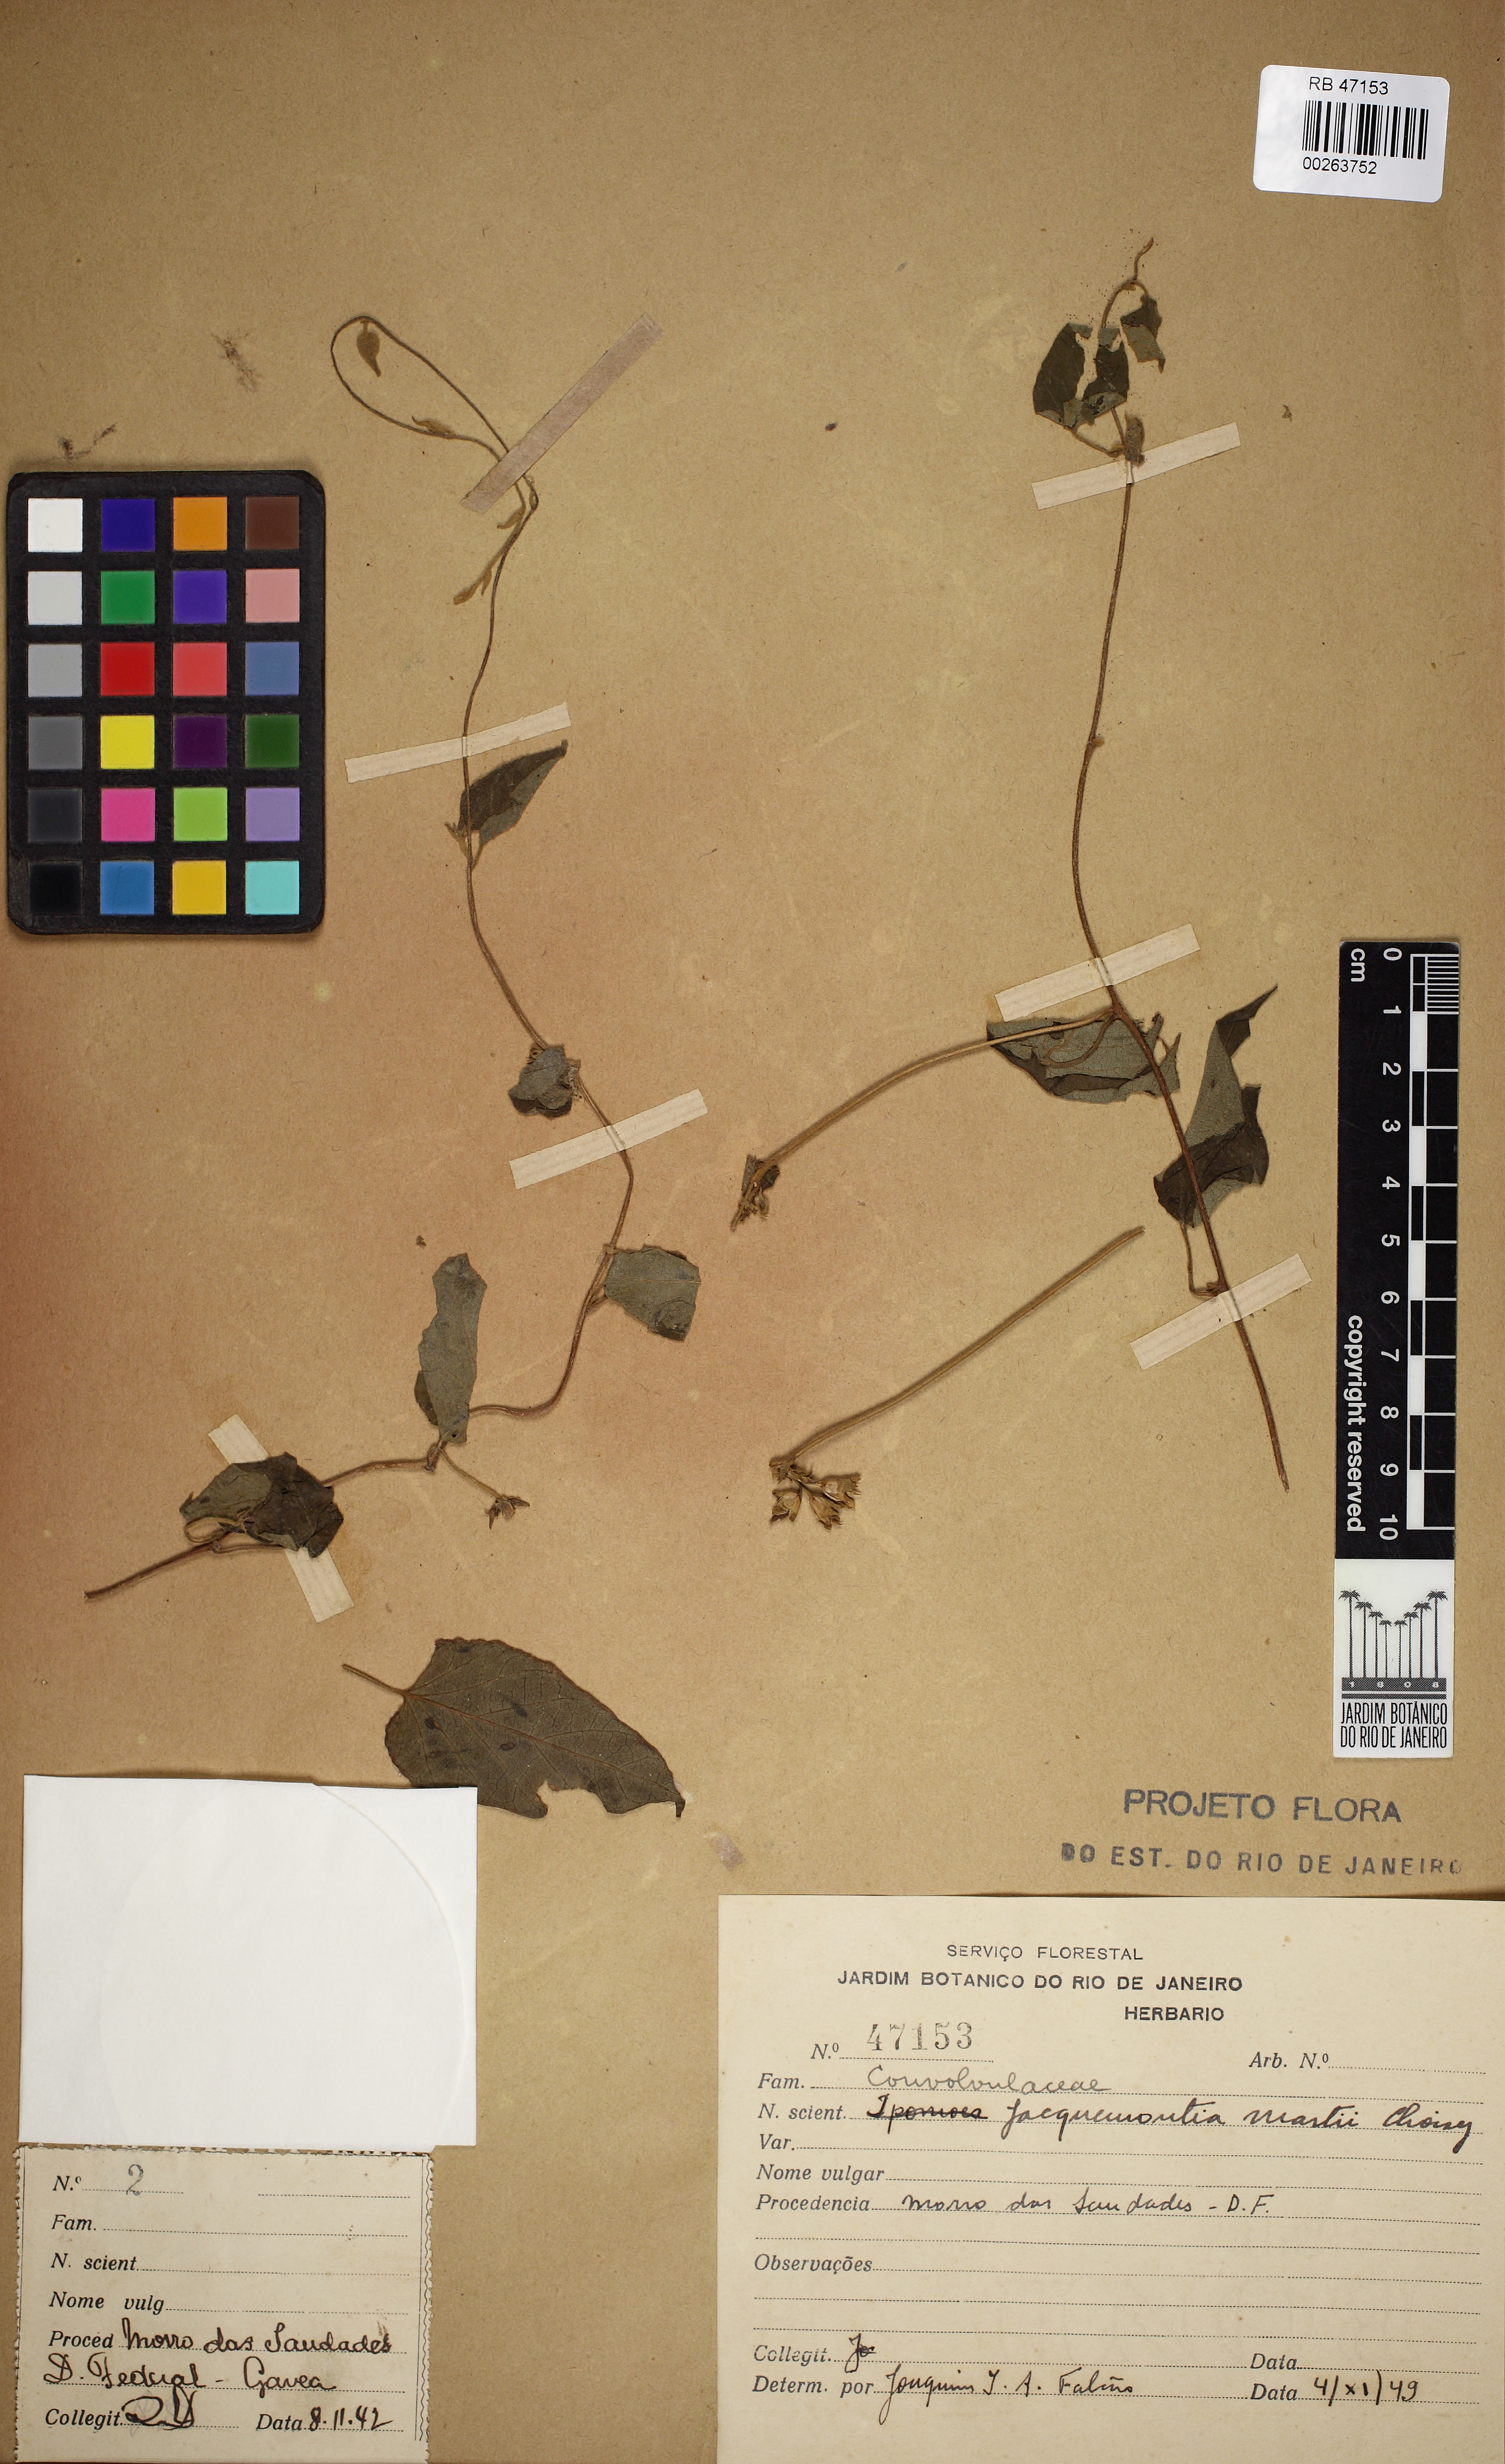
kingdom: Plantae
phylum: Tracheophyta
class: Magnoliopsida
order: Solanales
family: Convolvulaceae
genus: Jacquemontia
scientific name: Jacquemontia martii
